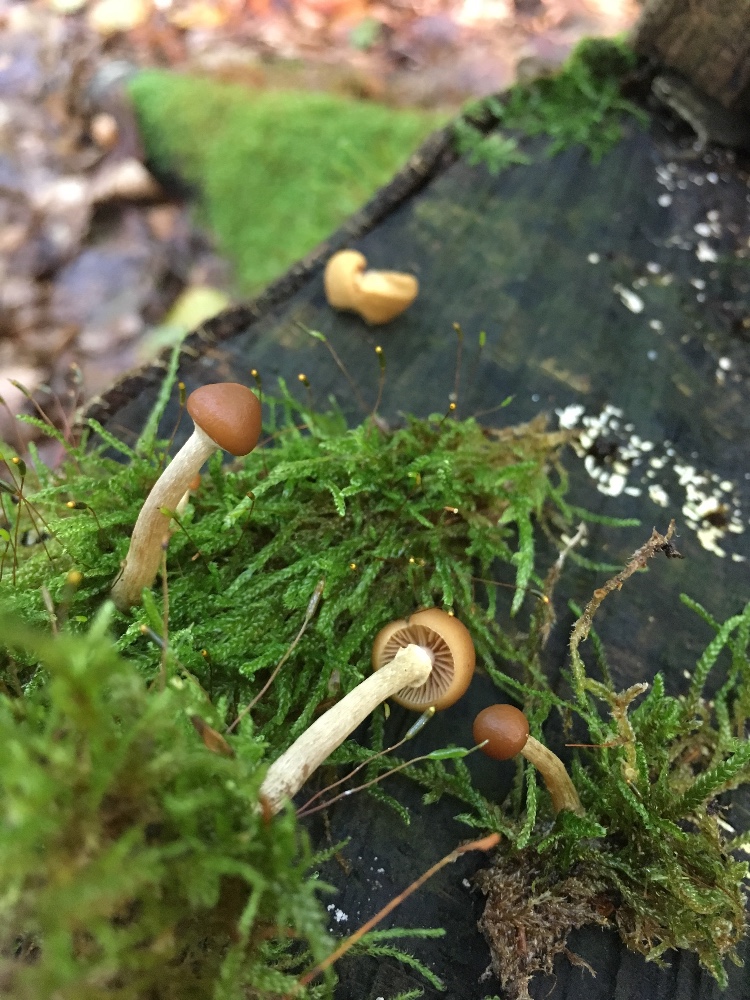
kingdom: Fungi
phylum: Basidiomycota
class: Agaricomycetes
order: Agaricales
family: Hymenogastraceae
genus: Galerina
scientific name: Galerina marginata
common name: randbæltet hjelmhat
